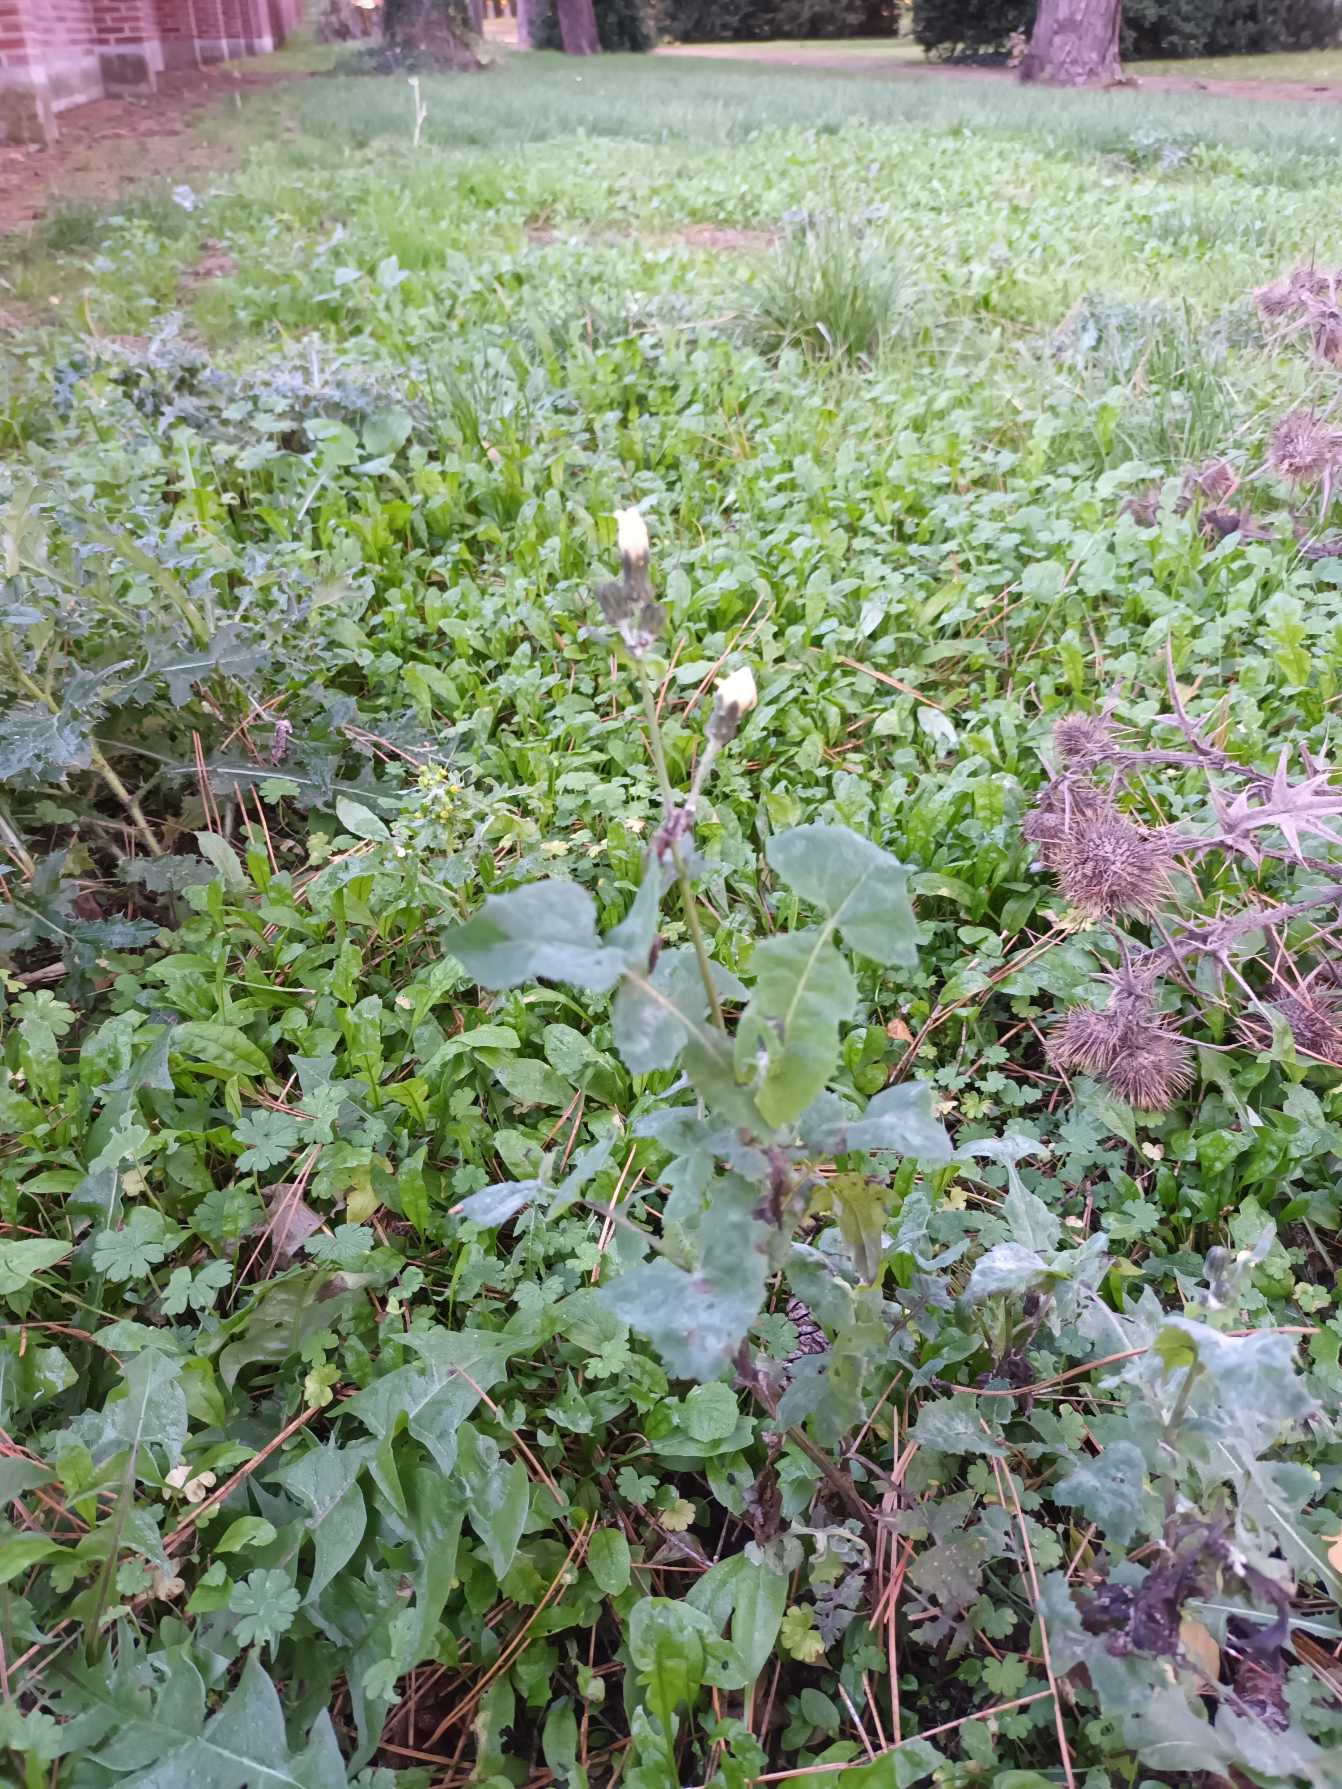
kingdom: Plantae
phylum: Tracheophyta
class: Magnoliopsida
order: Asterales
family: Asteraceae
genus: Sonchus
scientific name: Sonchus oleraceus
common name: Almindelig svinemælk
